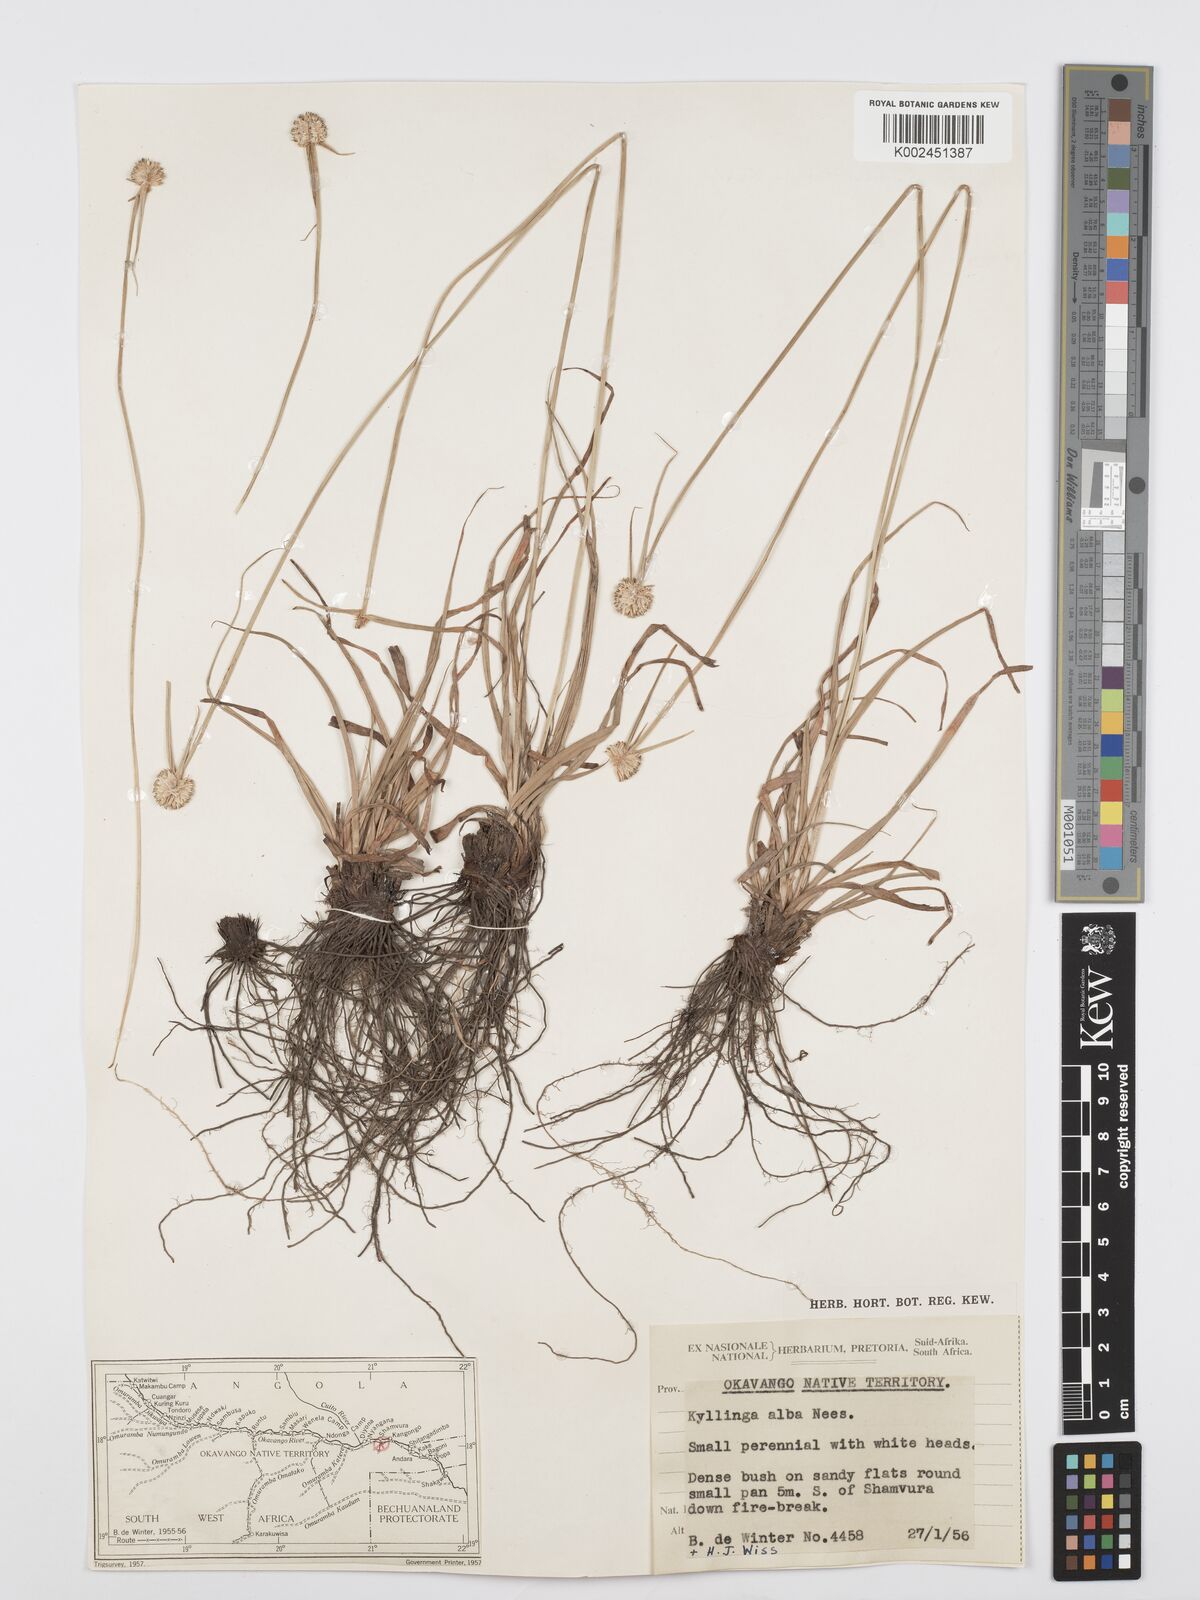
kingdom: Plantae
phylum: Tracheophyta
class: Liliopsida
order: Poales
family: Cyperaceae
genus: Cyperus
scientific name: Cyperus alatus
